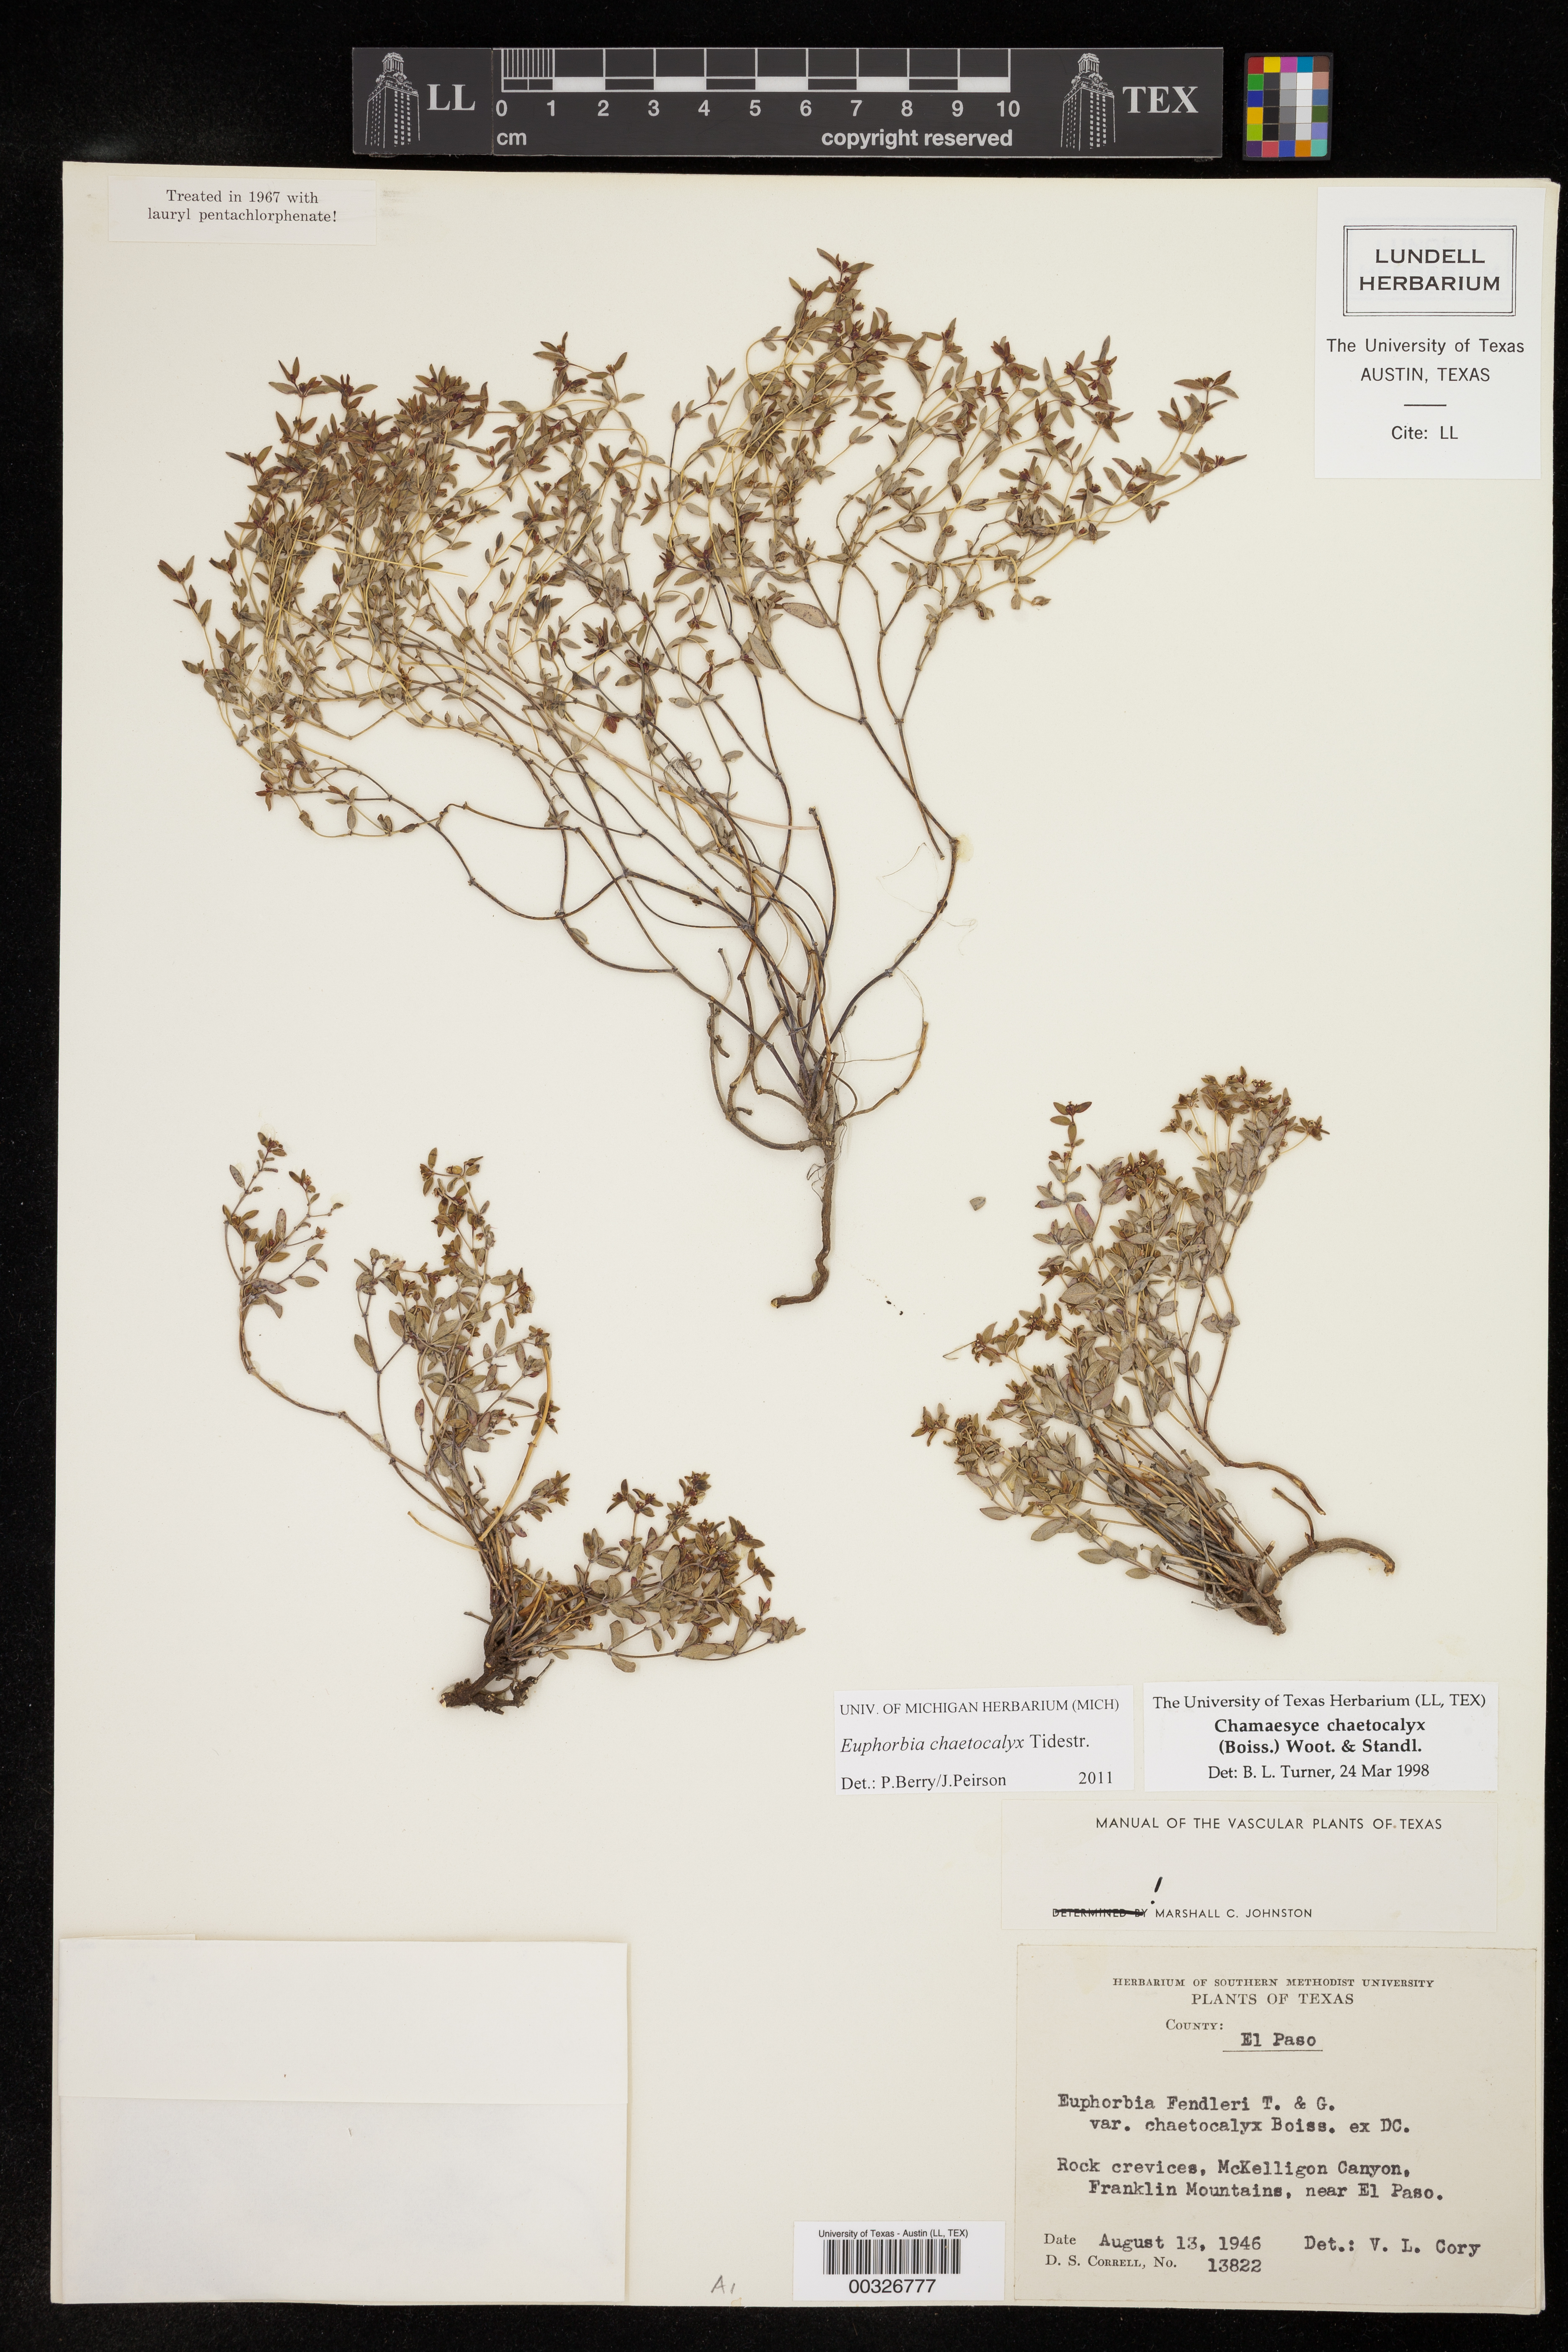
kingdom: Plantae
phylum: Tracheophyta
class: Magnoliopsida
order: Malpighiales
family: Euphorbiaceae
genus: Euphorbia
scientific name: Euphorbia chaetocalyx
